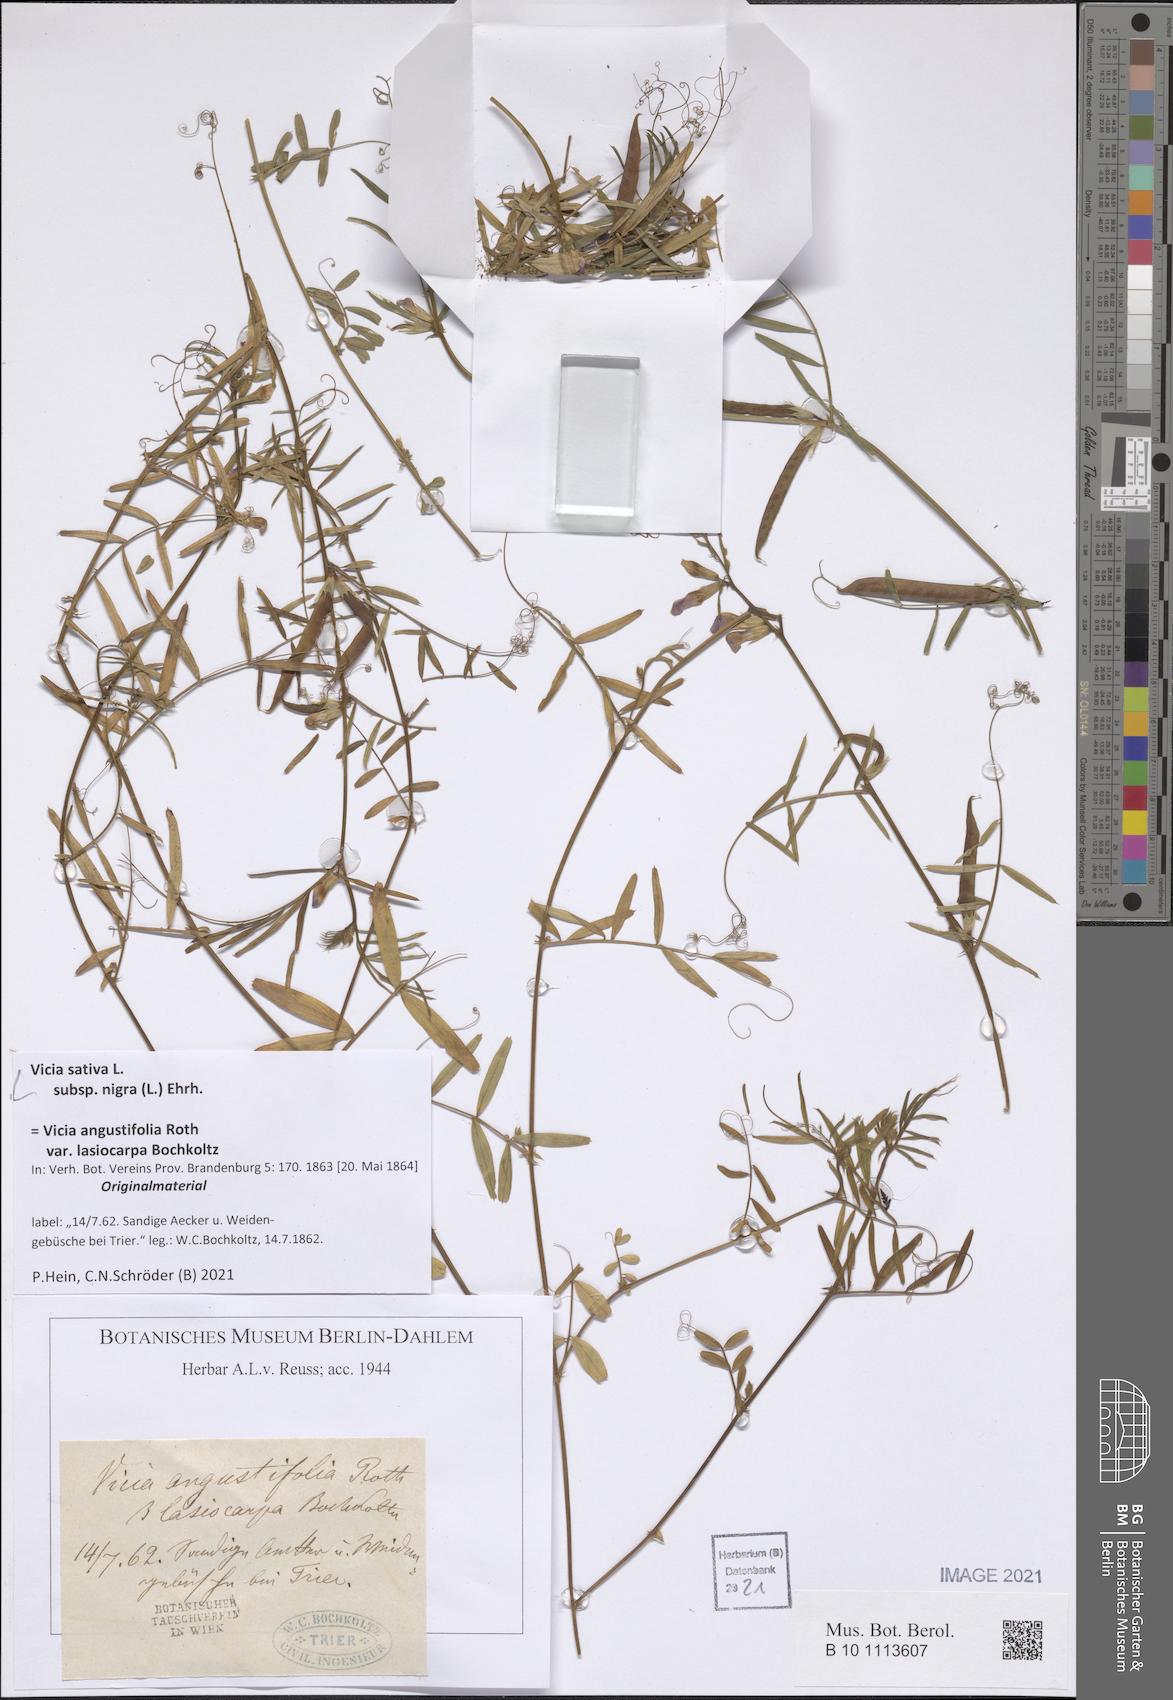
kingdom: Plantae
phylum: Tracheophyta
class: Magnoliopsida
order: Fabales
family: Fabaceae
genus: Vicia
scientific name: Vicia sativa
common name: Garden vetch
